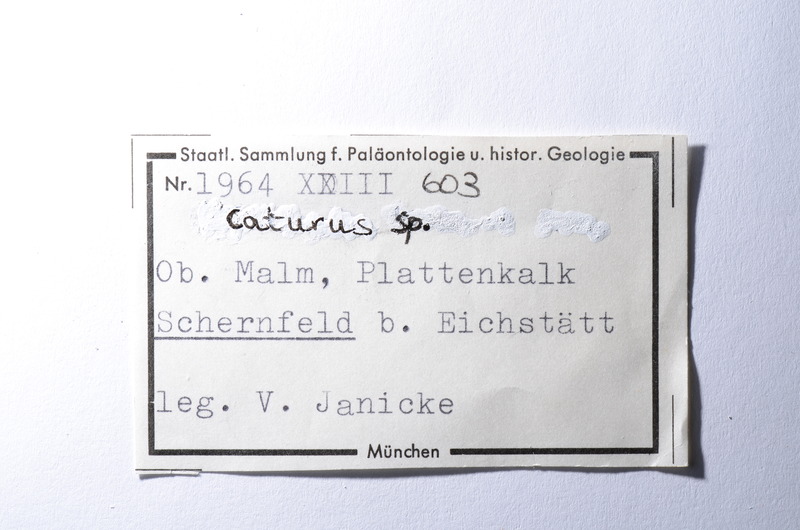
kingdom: Animalia
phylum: Chordata
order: Amiiformes
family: Caturidae
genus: Caturus
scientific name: Caturus
